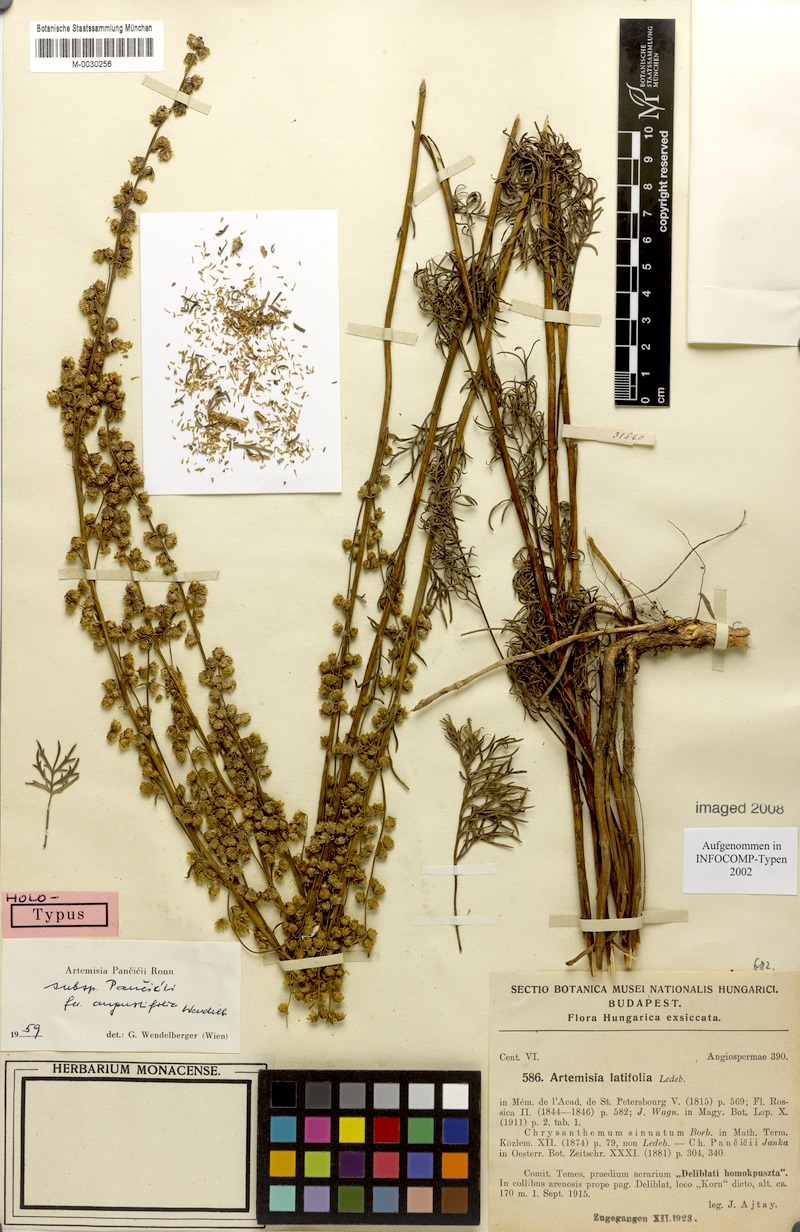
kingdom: Plantae
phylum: Tracheophyta
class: Magnoliopsida
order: Asterales
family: Asteraceae
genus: Artemisia
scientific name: Artemisia pancicii
